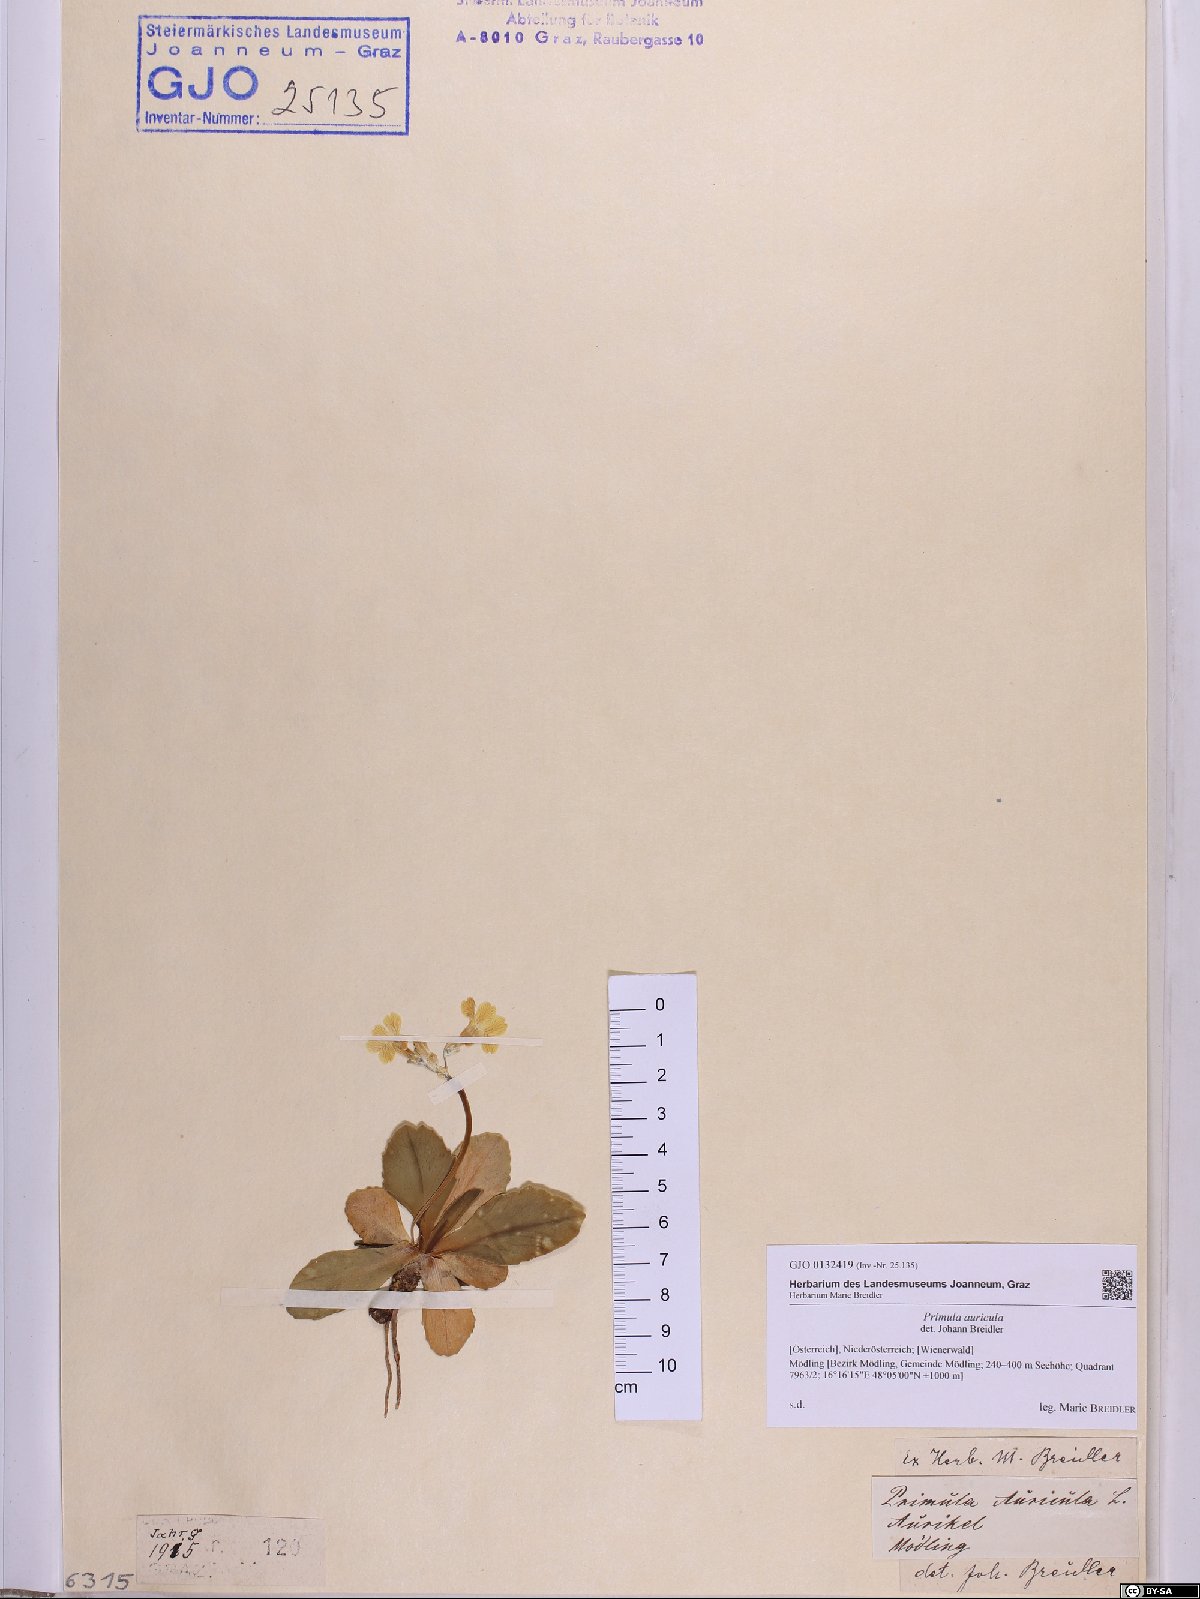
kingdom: Plantae
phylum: Tracheophyta
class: Magnoliopsida
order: Ericales
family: Primulaceae
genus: Primula
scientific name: Primula auricula
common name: Auricula
